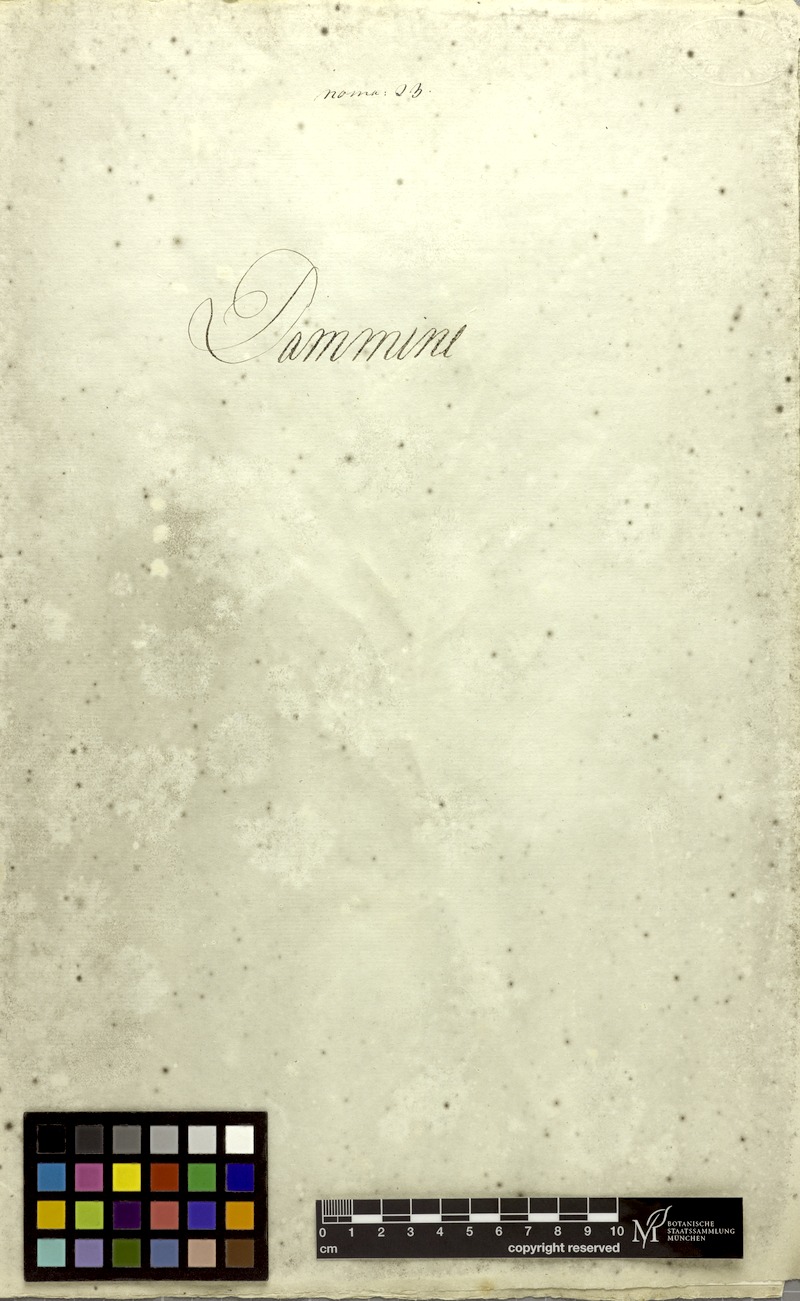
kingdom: Plantae
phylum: Tracheophyta
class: Magnoliopsida
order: Malvales
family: Malvaceae
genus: Grewia
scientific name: Grewia tiliifolia
